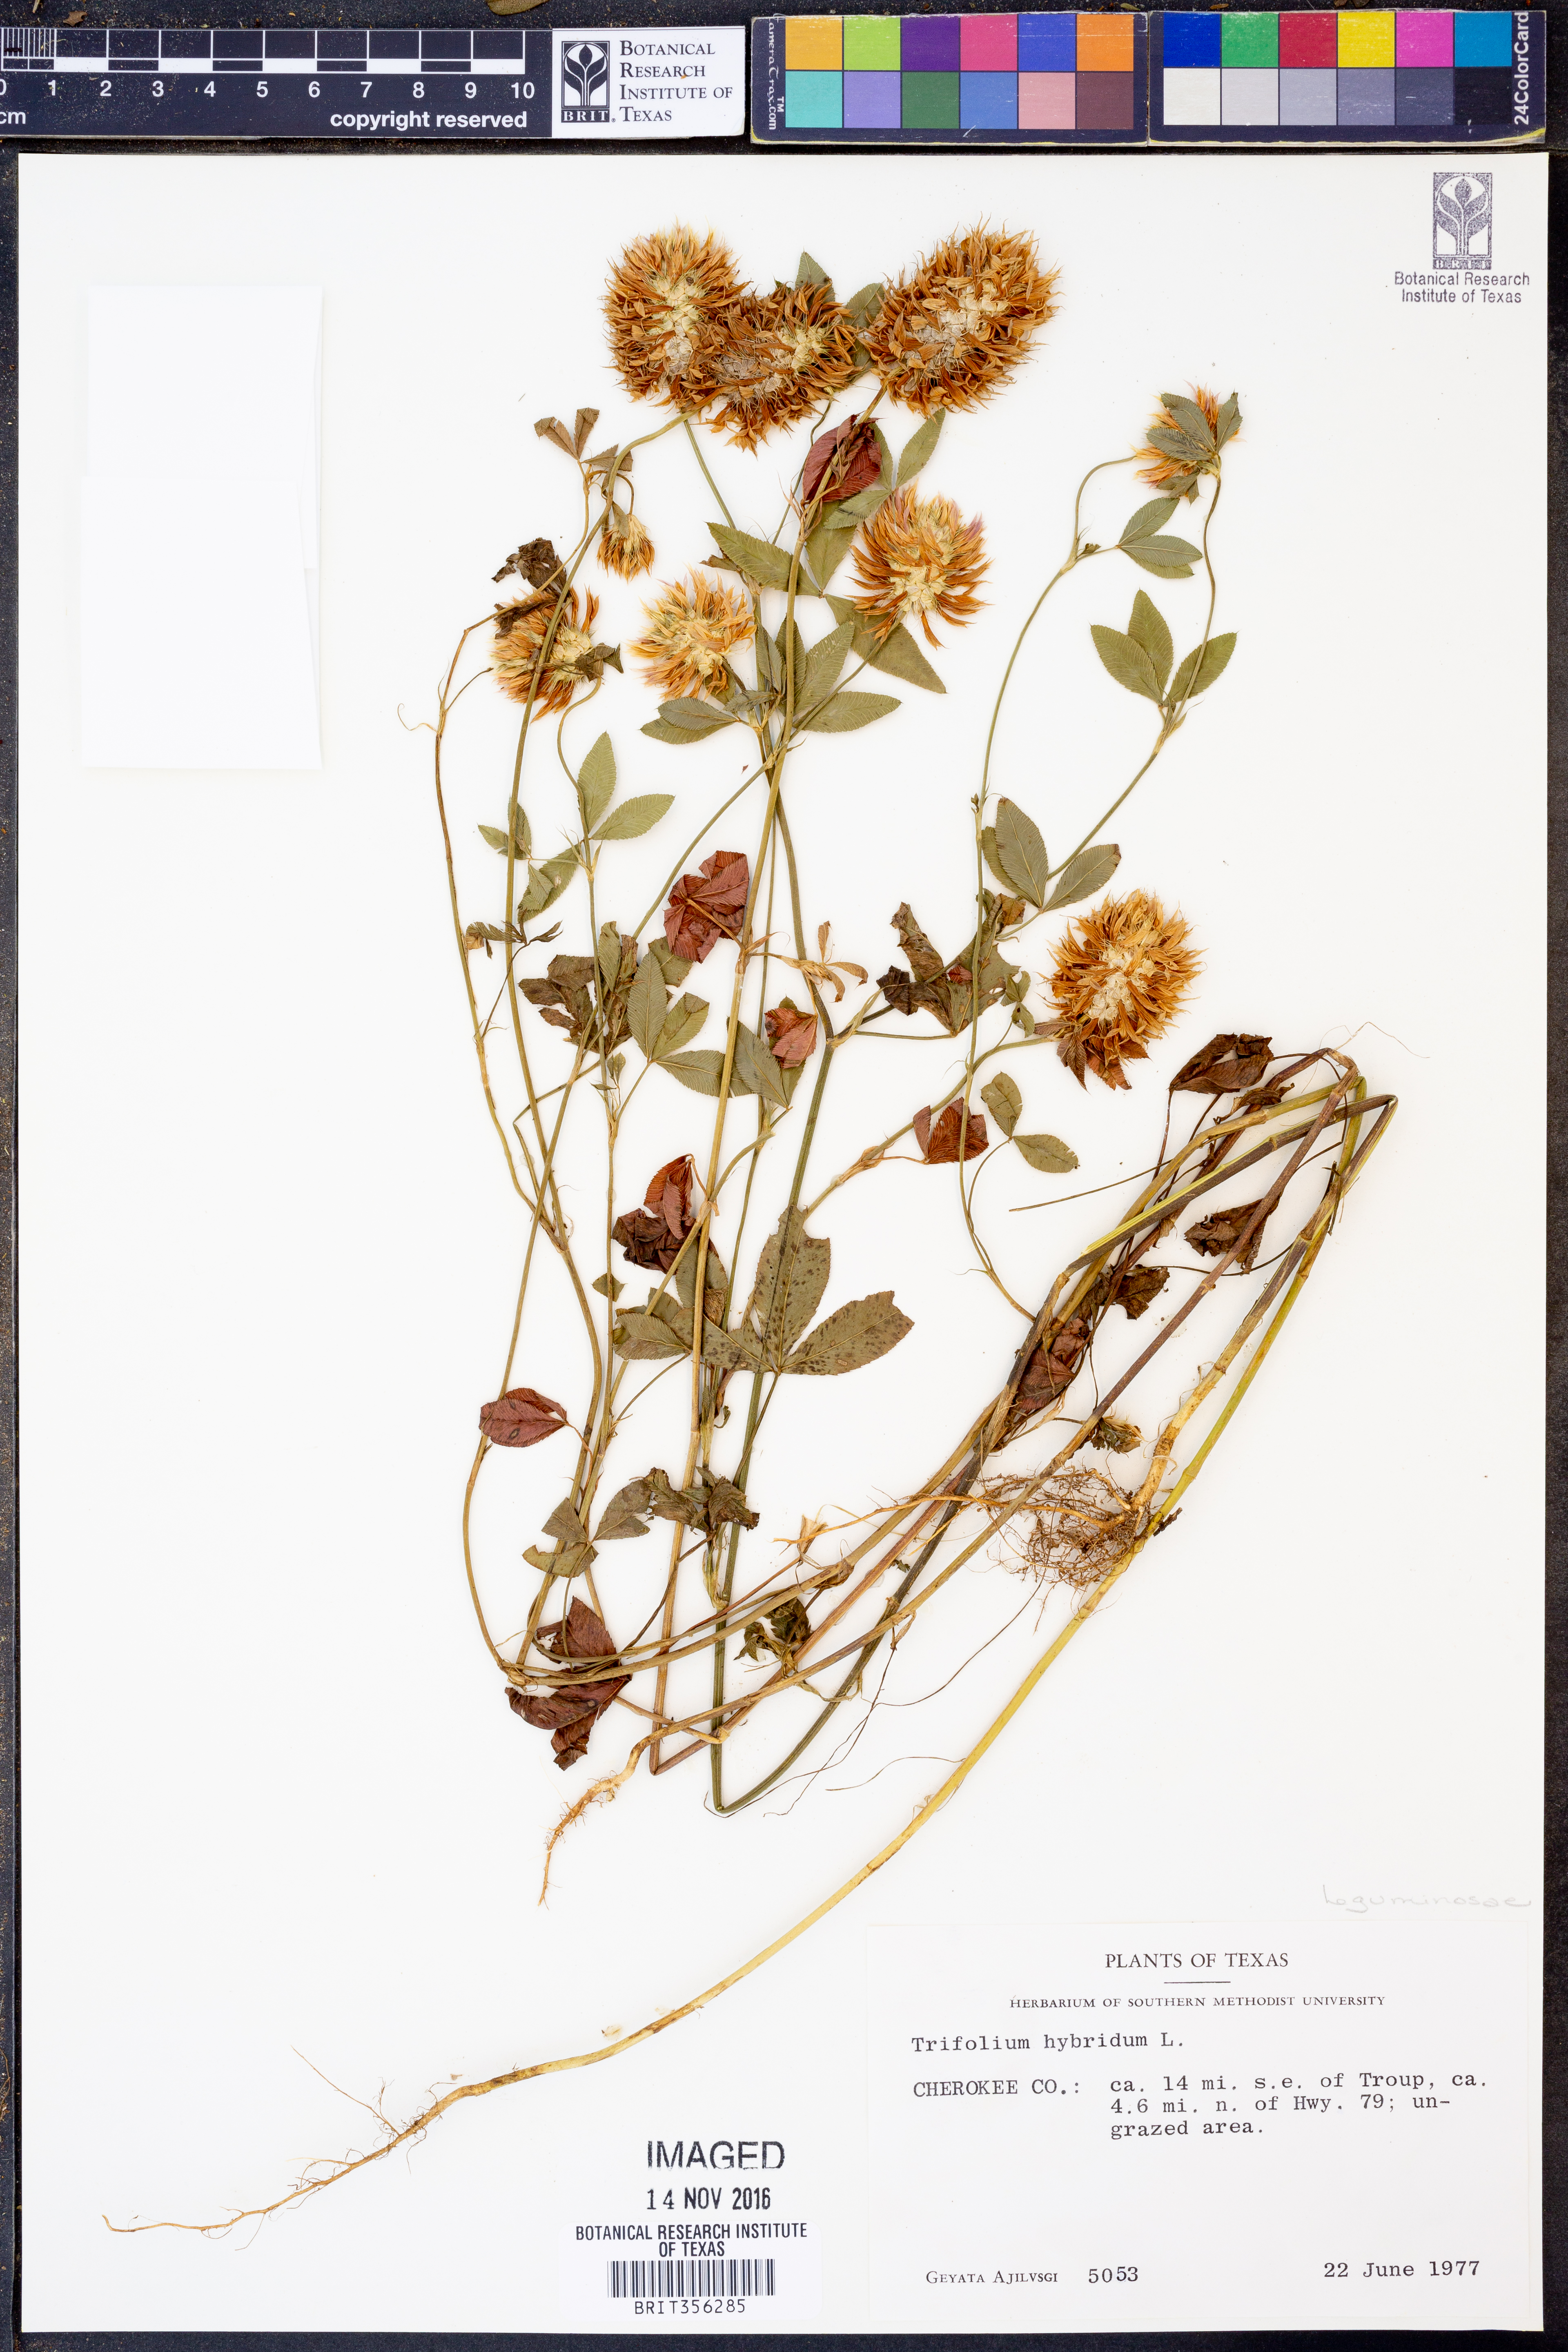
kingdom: Plantae
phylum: Tracheophyta
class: Magnoliopsida
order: Fabales
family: Fabaceae
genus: Trifolium
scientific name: Trifolium hybridum
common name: Alsike clover
